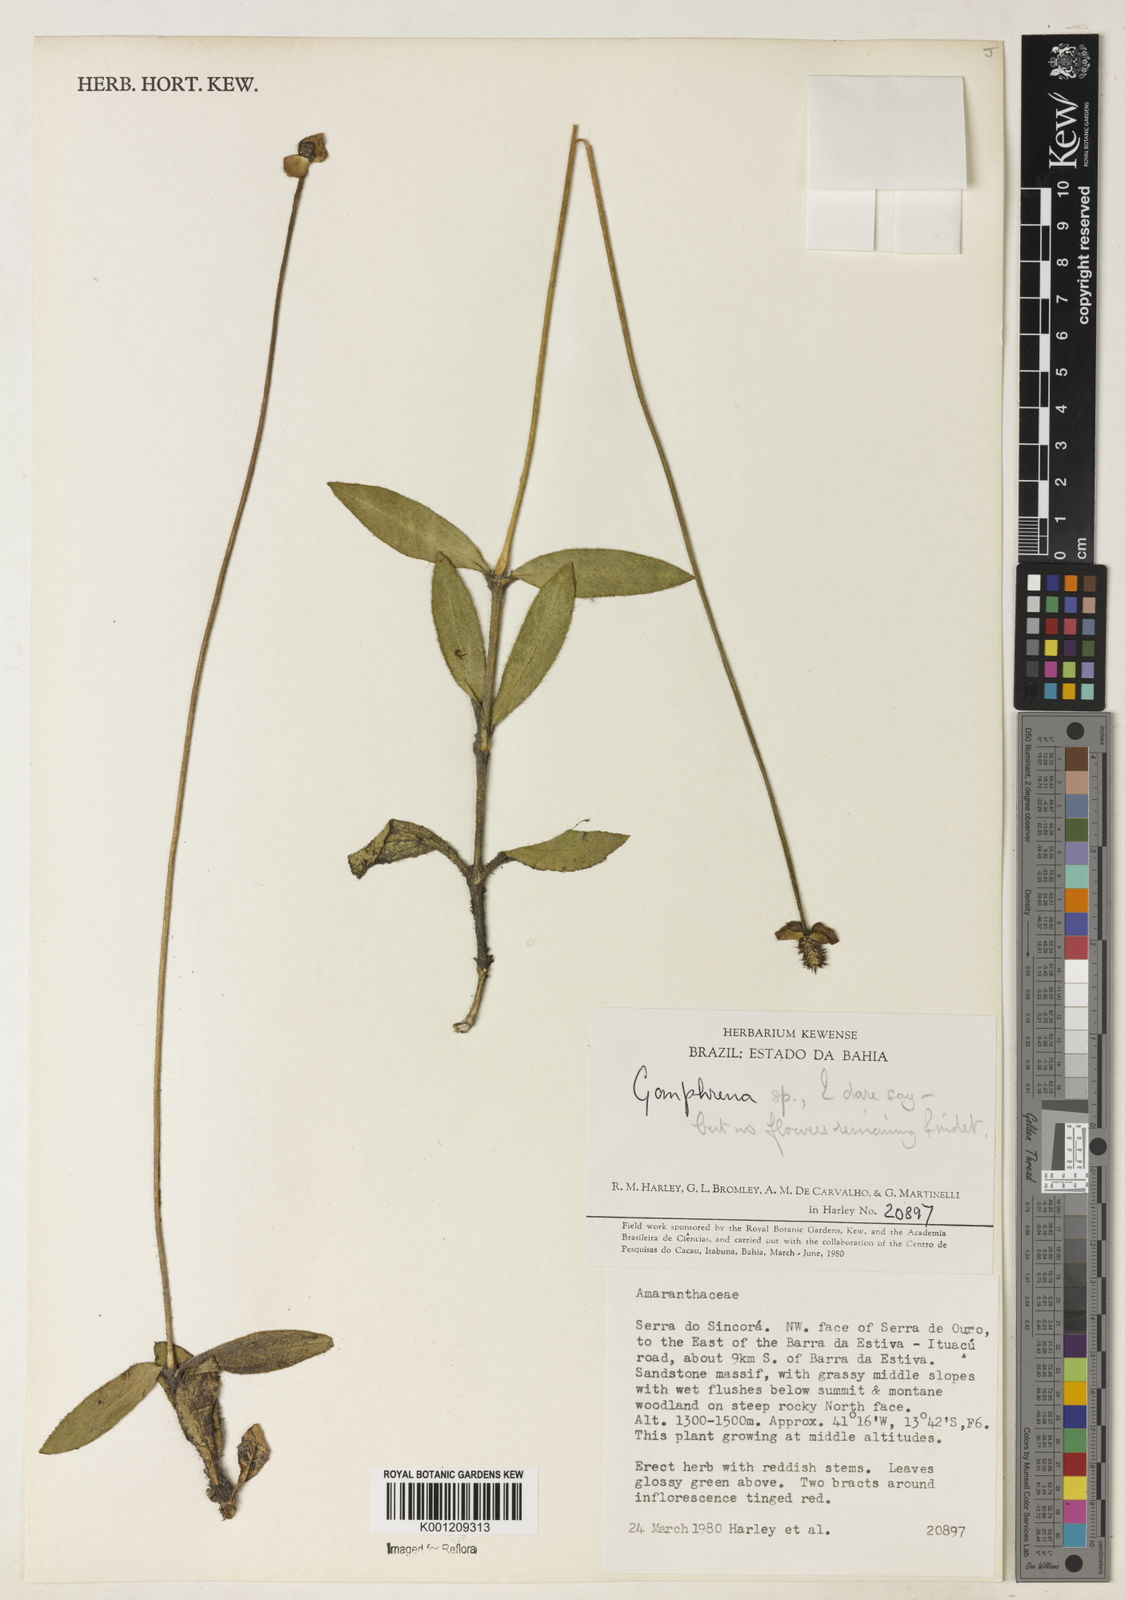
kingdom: Plantae
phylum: Tracheophyta
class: Magnoliopsida
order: Caryophyllales
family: Amaranthaceae
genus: Gomphrena
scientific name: Gomphrena
